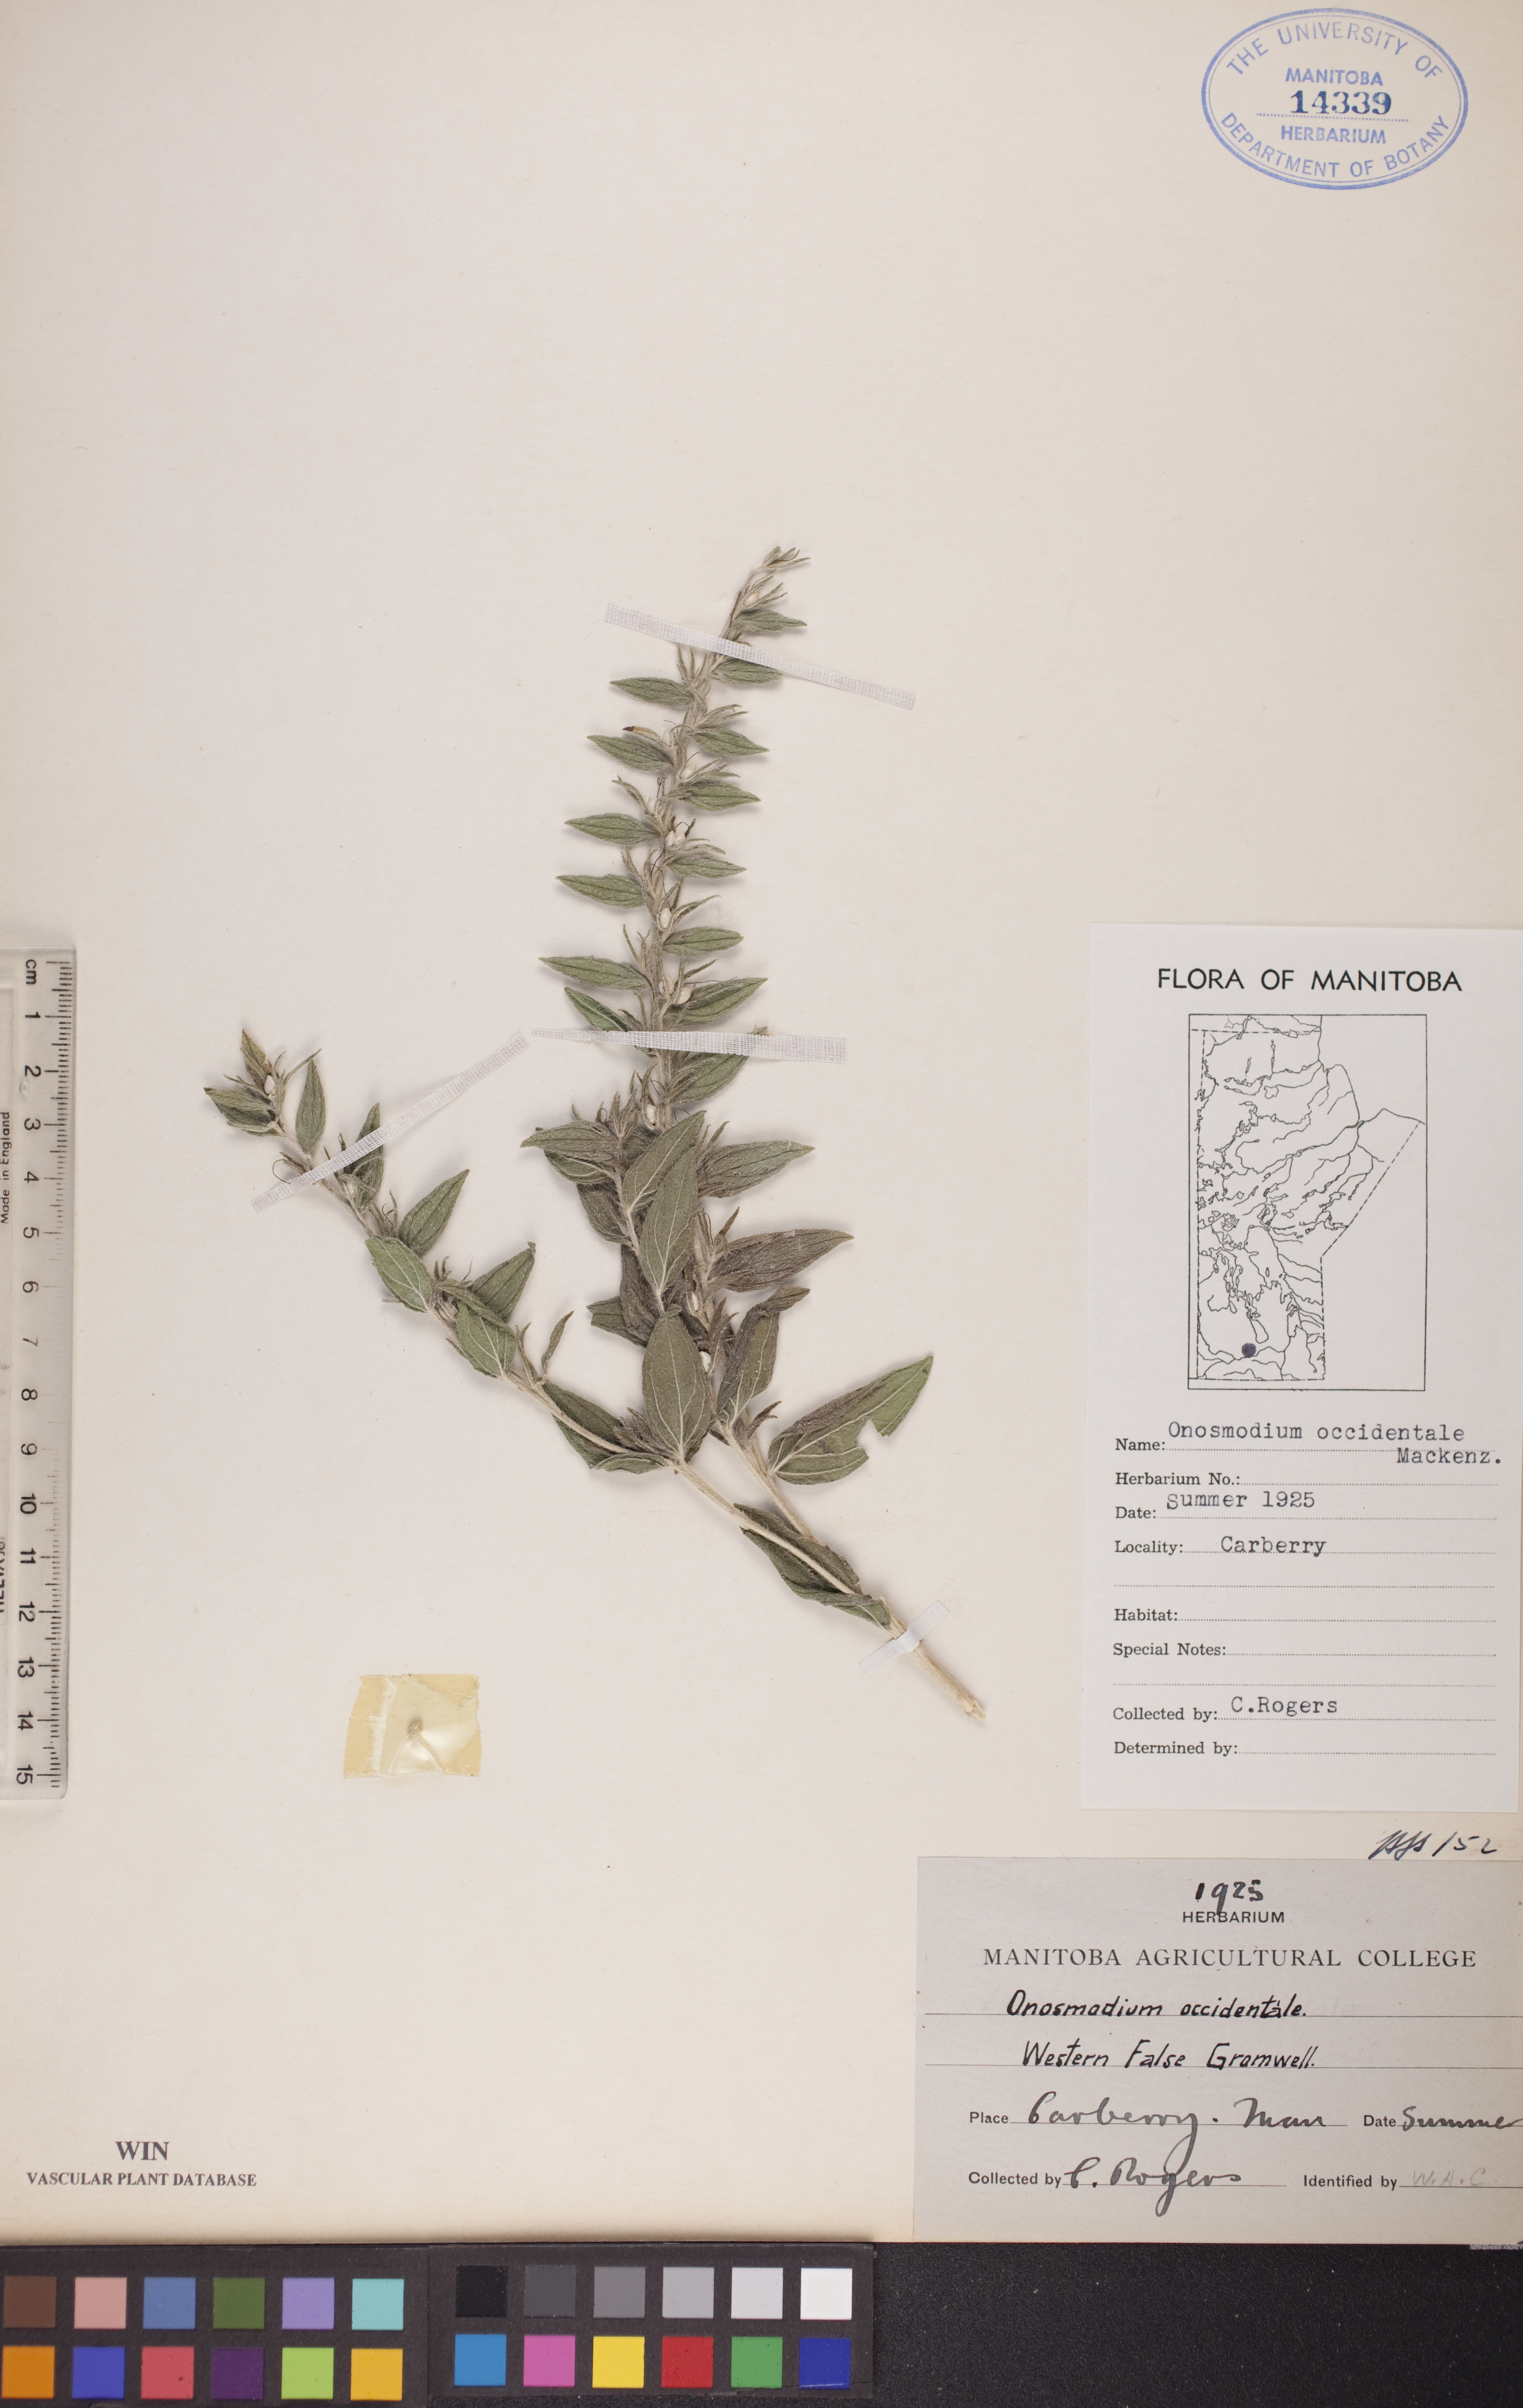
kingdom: Plantae
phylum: Tracheophyta
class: Magnoliopsida
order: Boraginales
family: Boraginaceae
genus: Lithospermum
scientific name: Lithospermum occidentale
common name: Western false gromwell
